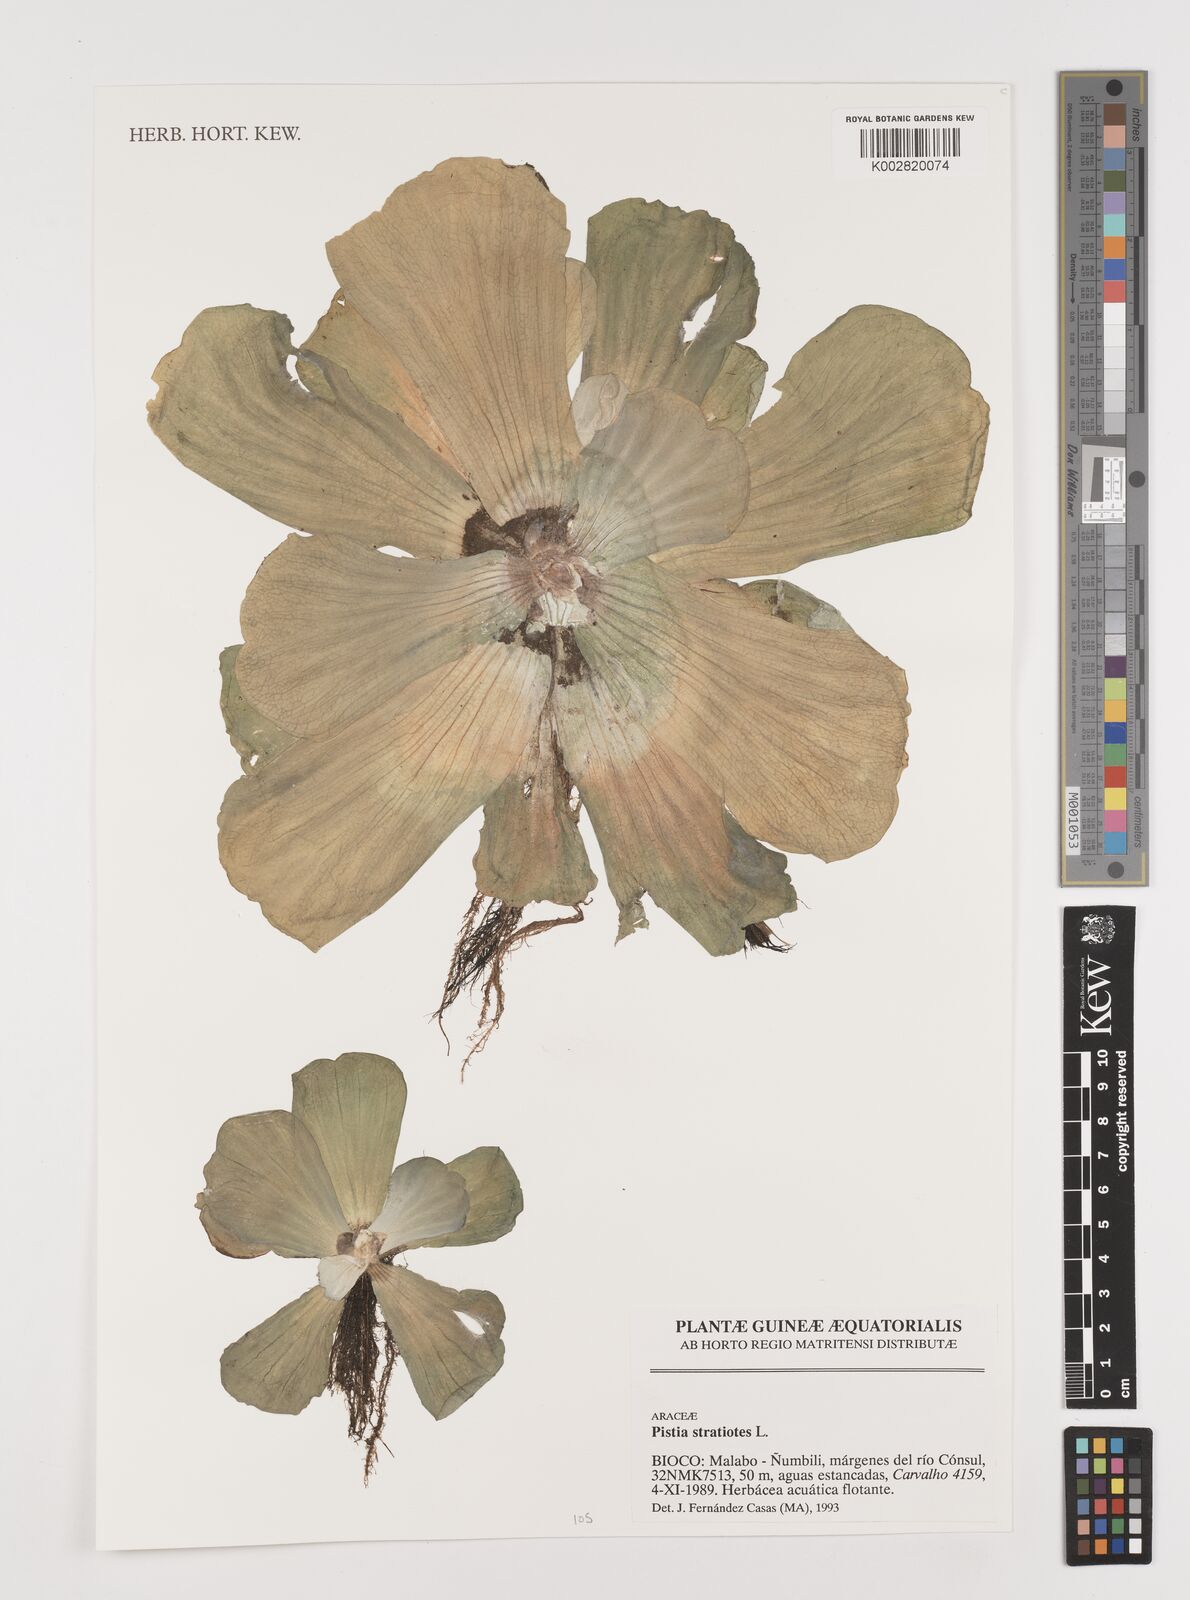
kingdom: Plantae
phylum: Tracheophyta
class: Liliopsida
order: Alismatales
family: Araceae
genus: Pistia
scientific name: Pistia stratiotes
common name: Water lettuce
